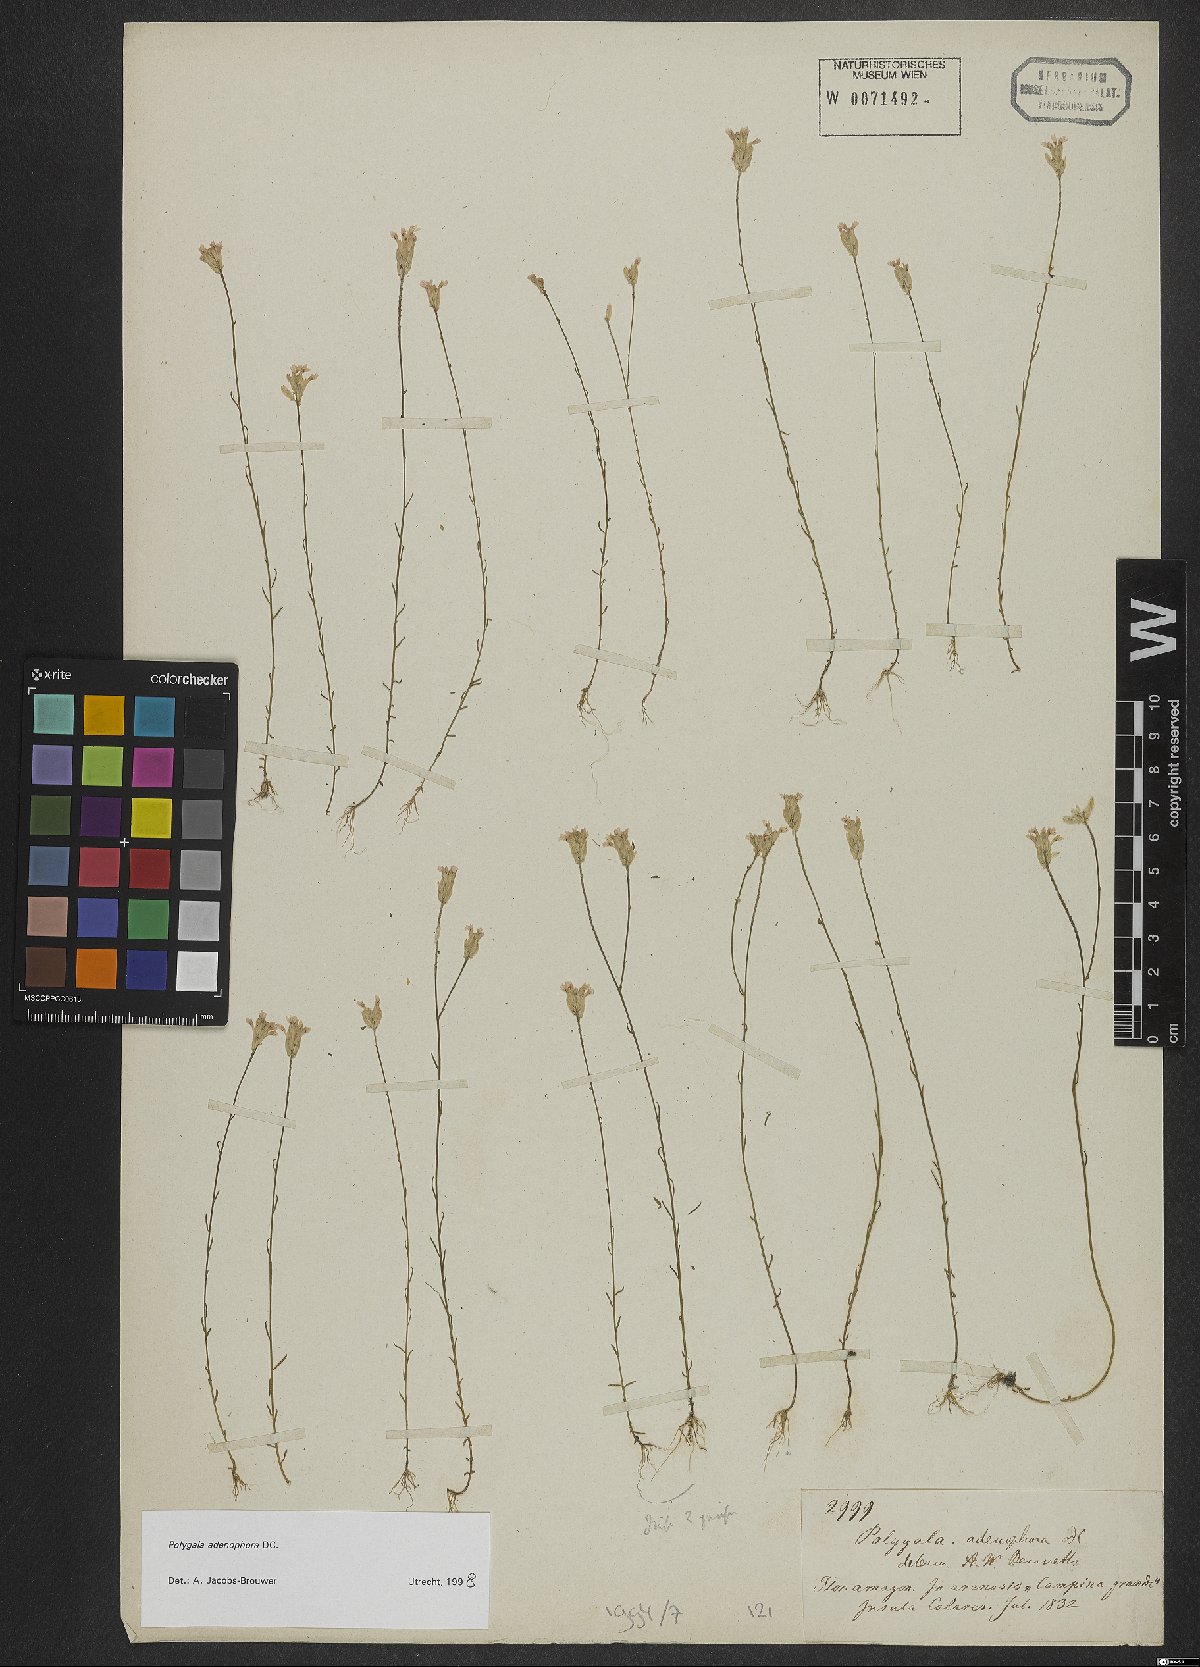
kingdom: Plantae
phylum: Tracheophyta
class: Magnoliopsida
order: Fabales
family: Polygalaceae
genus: Polygala
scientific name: Polygala adenophora
